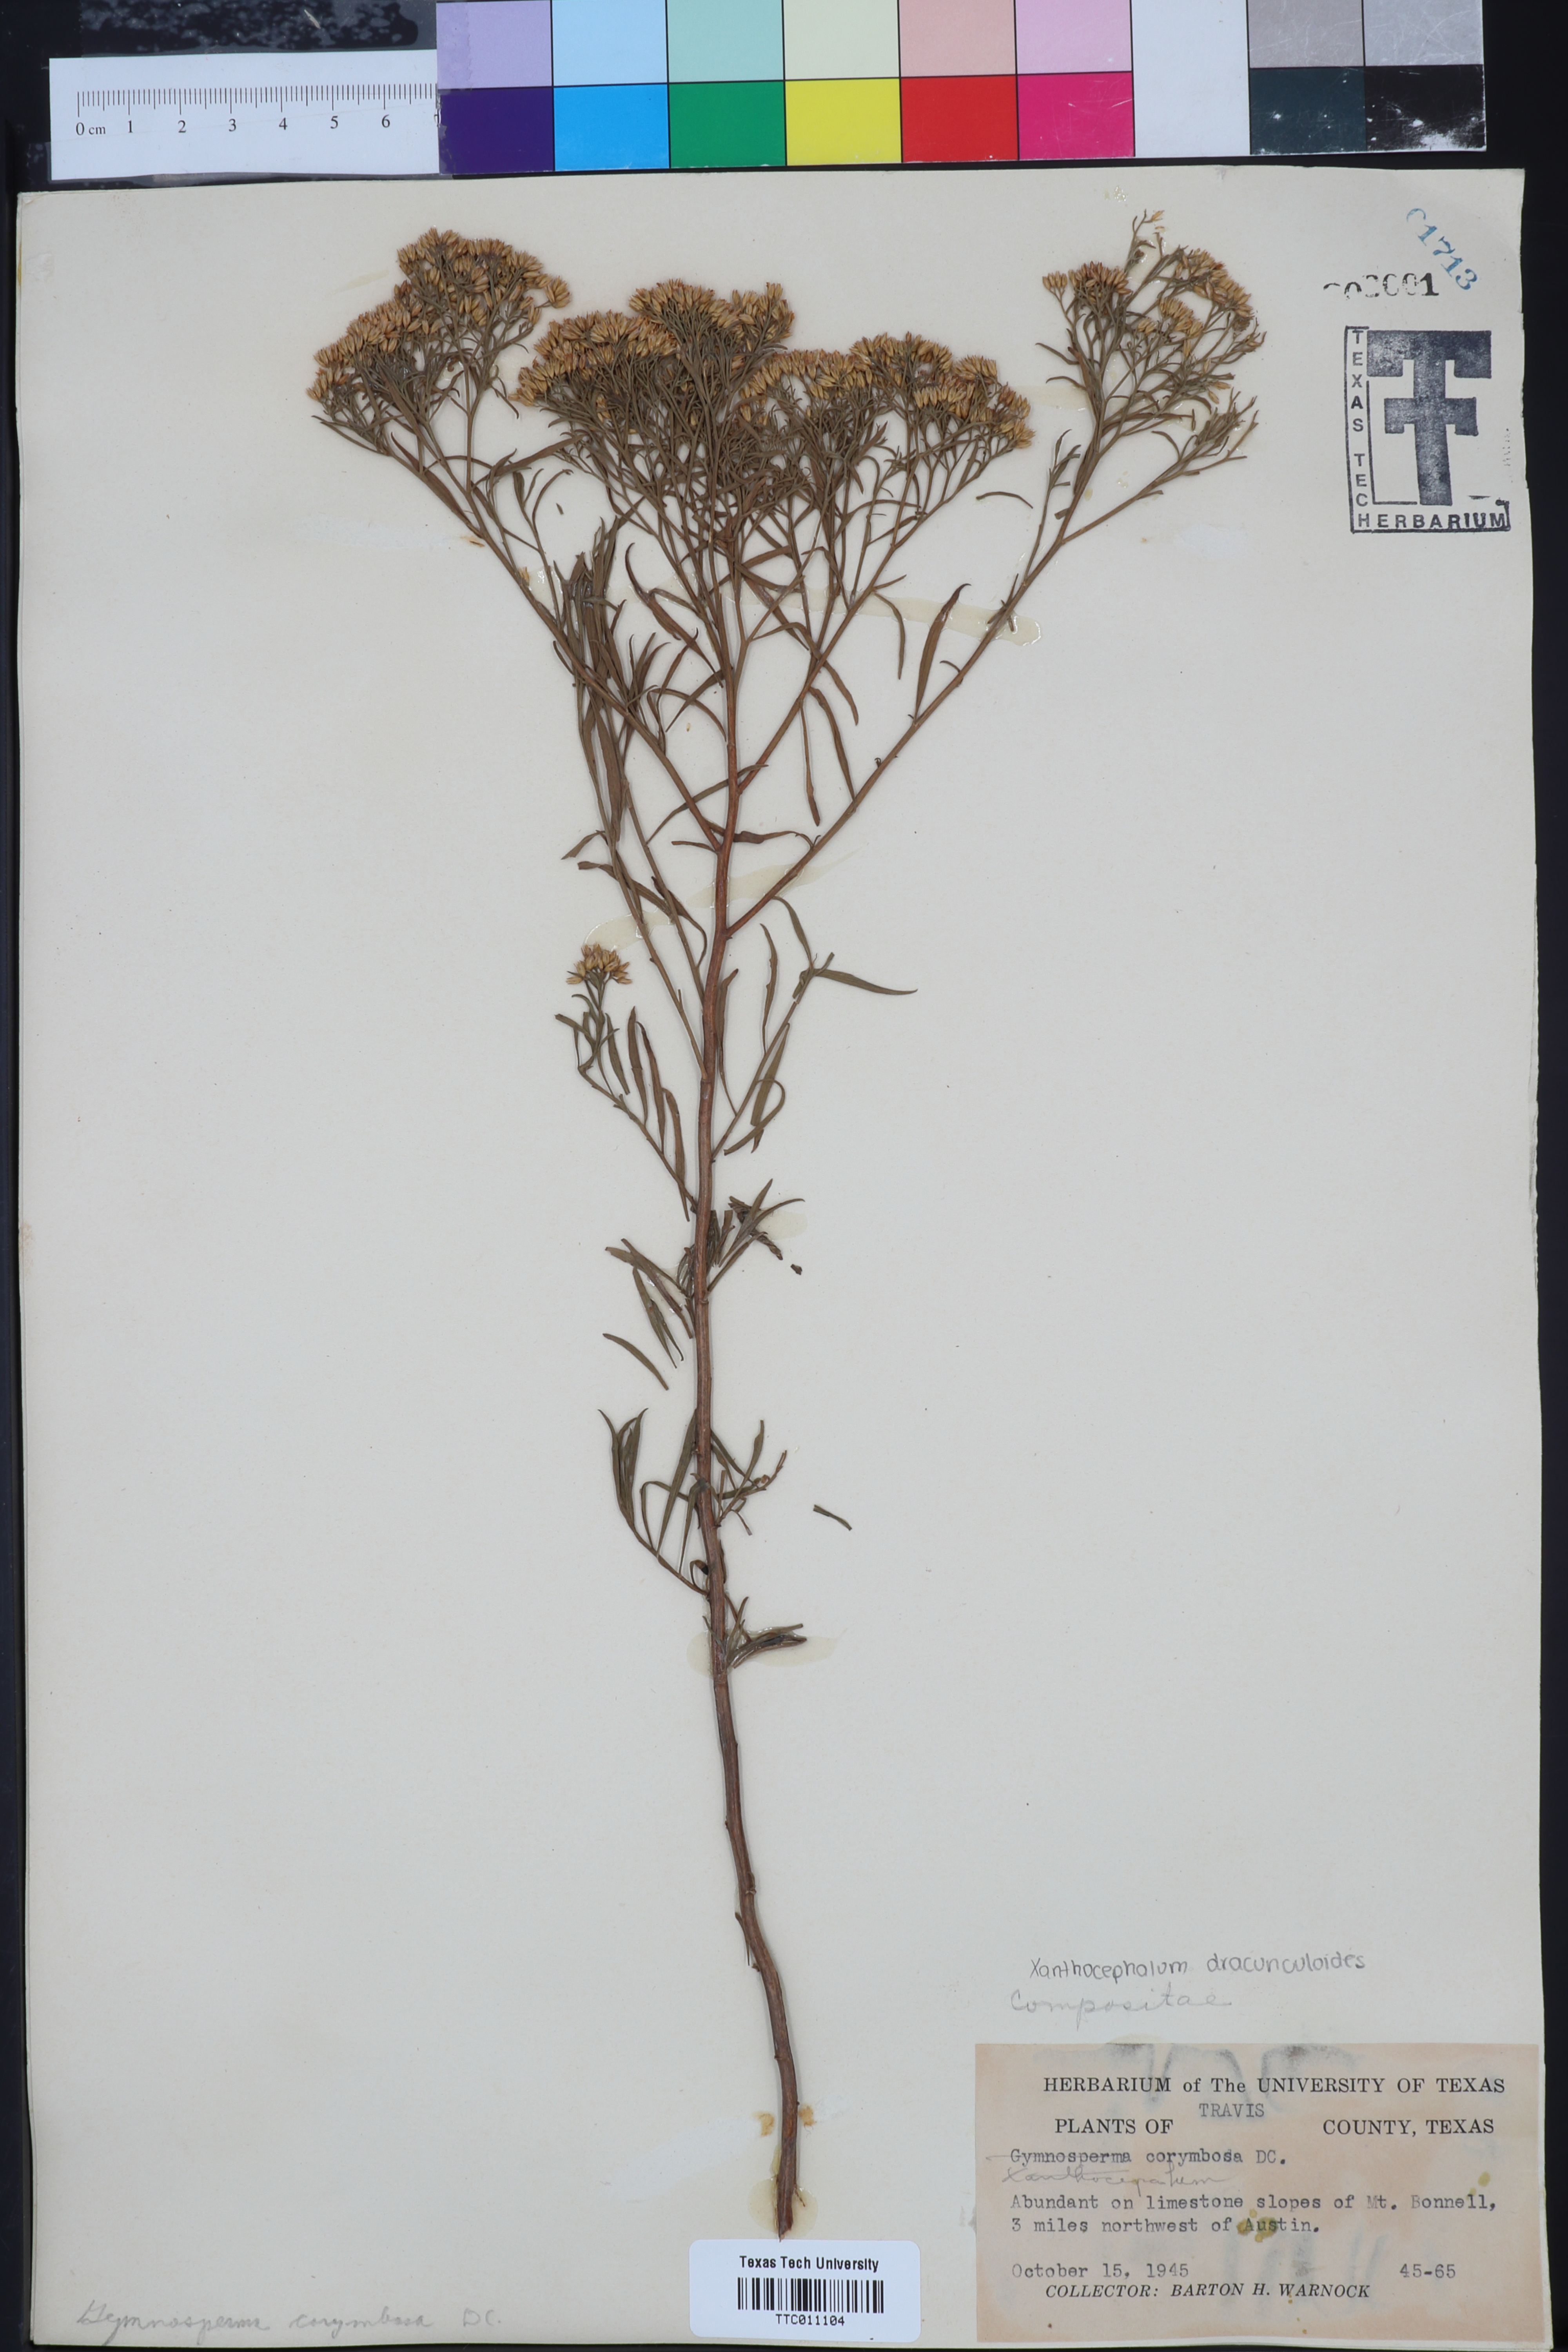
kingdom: Plantae
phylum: Tracheophyta
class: Magnoliopsida
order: Asterales
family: Asteraceae
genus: Xanthocephalum
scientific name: Xanthocephalum
